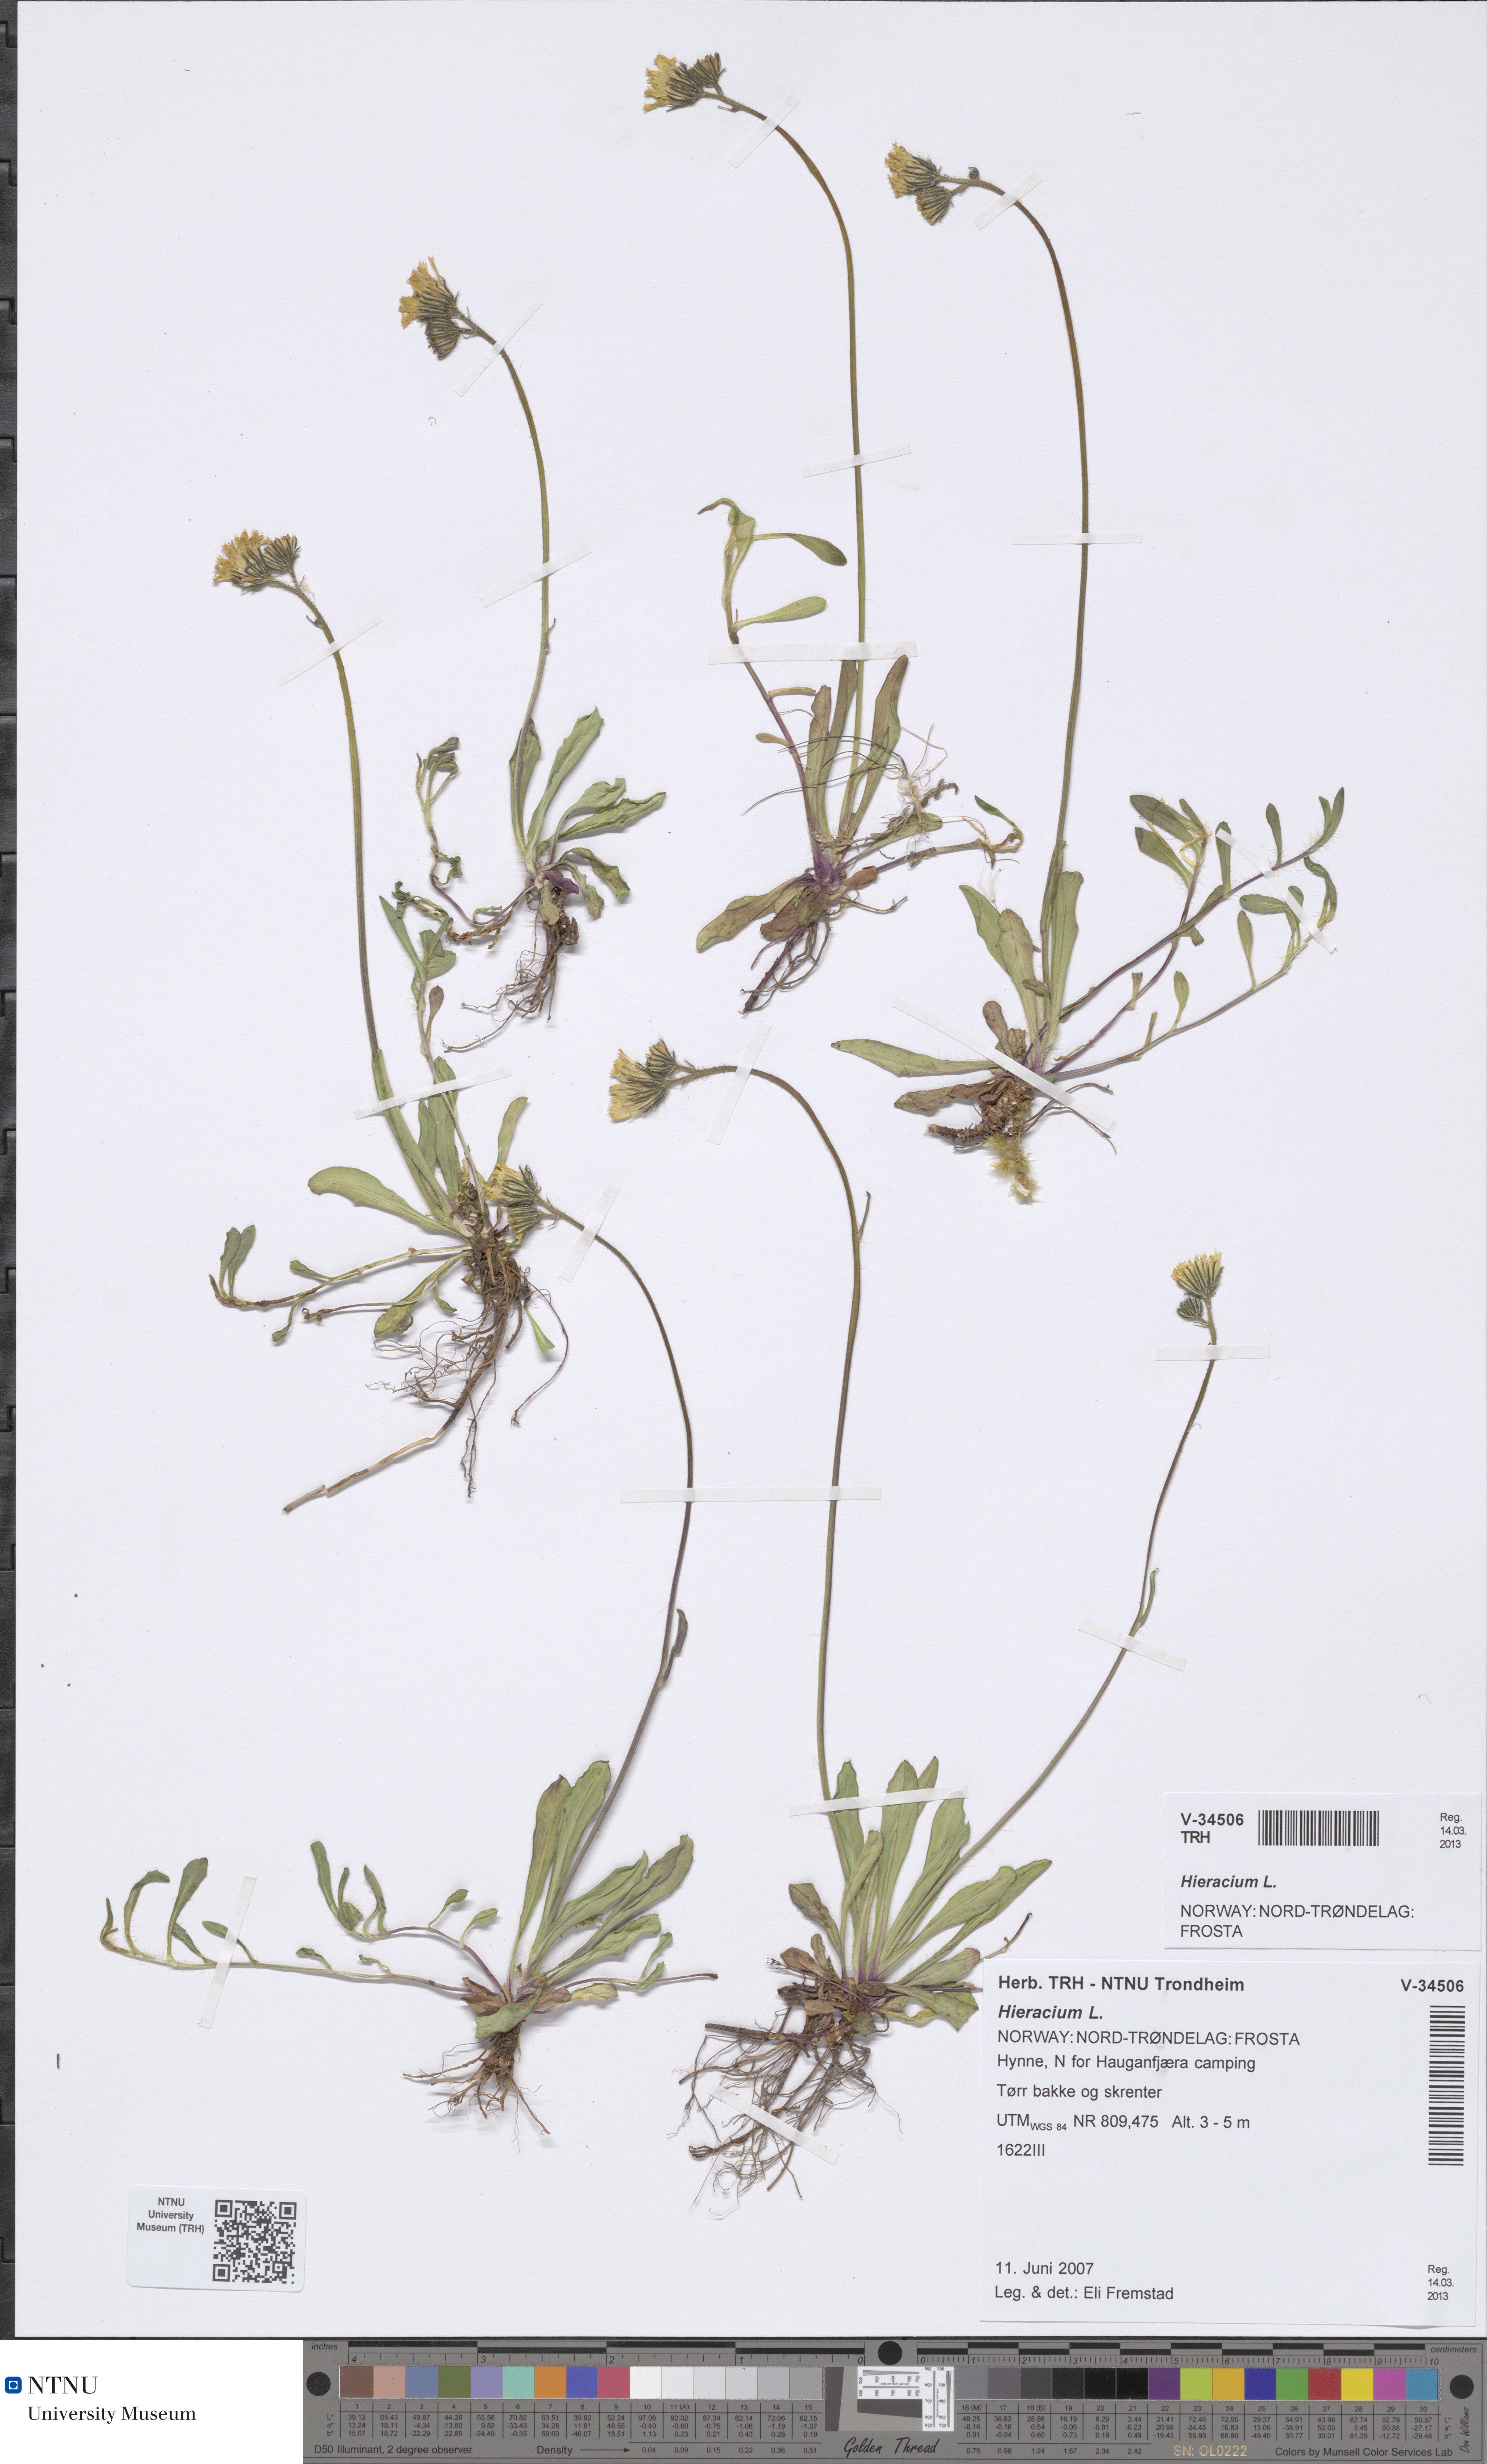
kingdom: Plantae
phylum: Tracheophyta
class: Magnoliopsida
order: Asterales
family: Asteraceae
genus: Hieracium
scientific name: Hieracium
